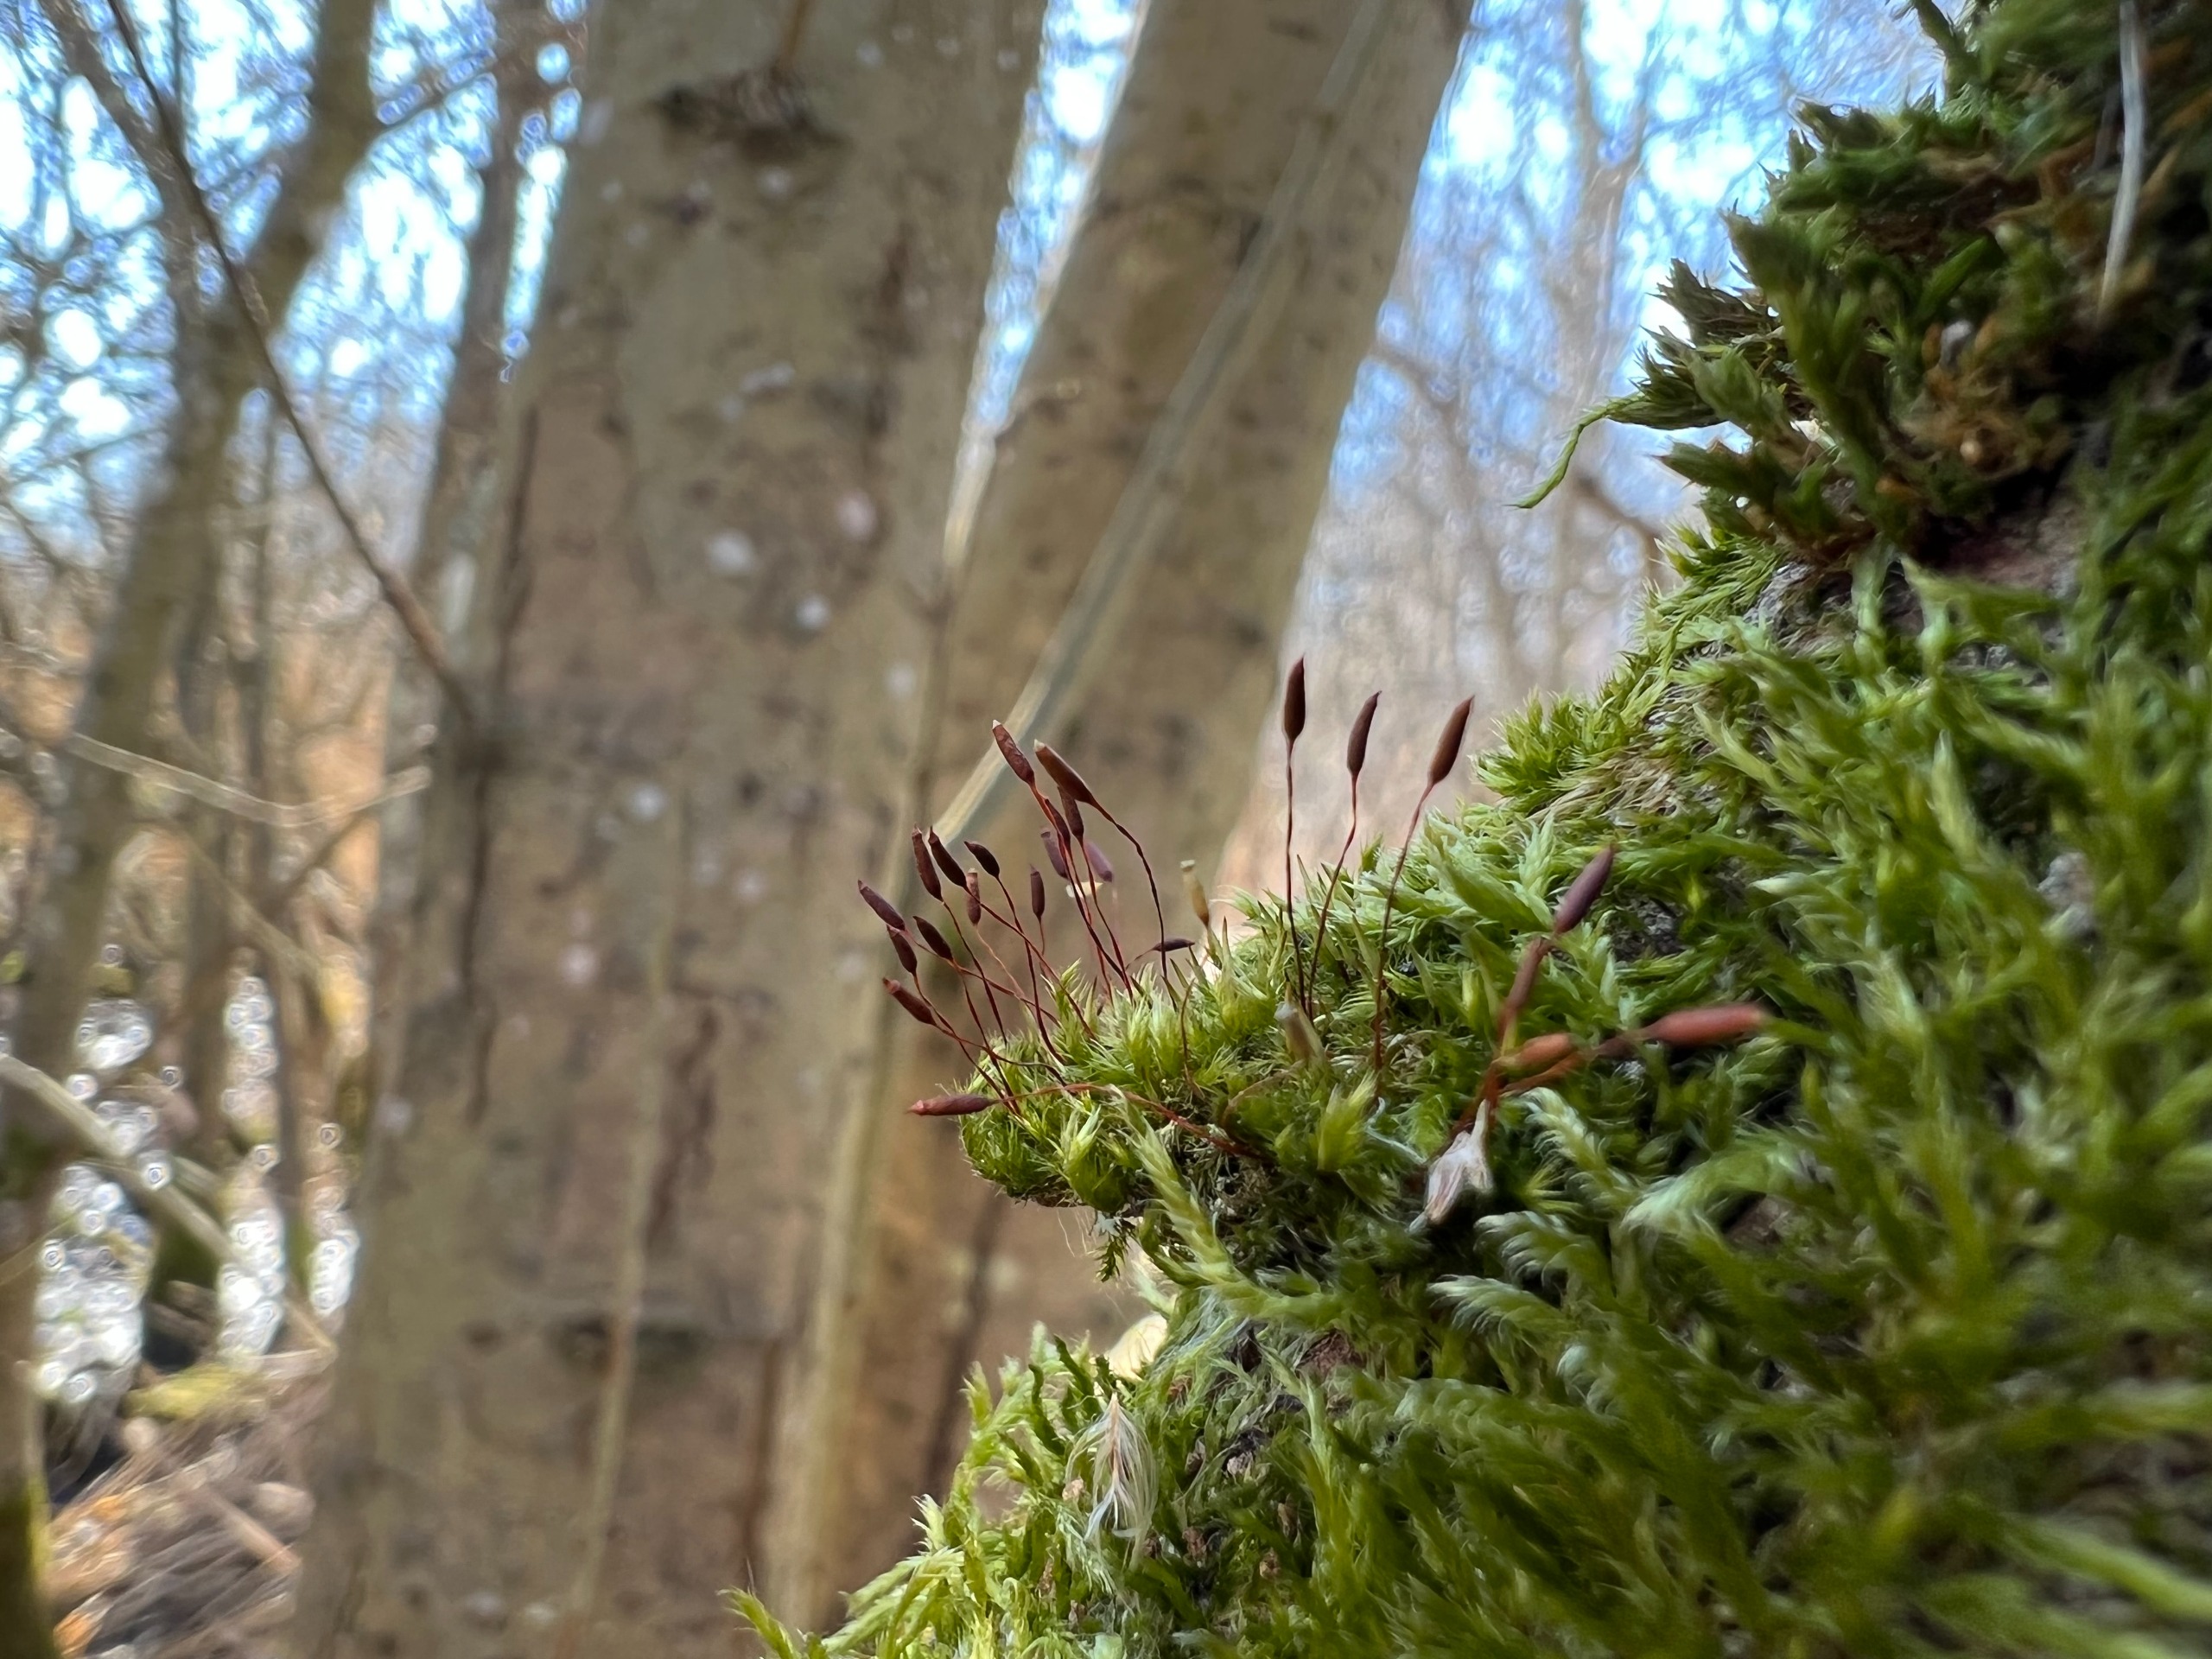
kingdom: Plantae
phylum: Bryophyta
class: Bryopsida
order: Hypnales
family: Pylaisiaceae
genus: Pylaisia
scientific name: Pylaisia polyantha
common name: Mangefrugtet aspemos
